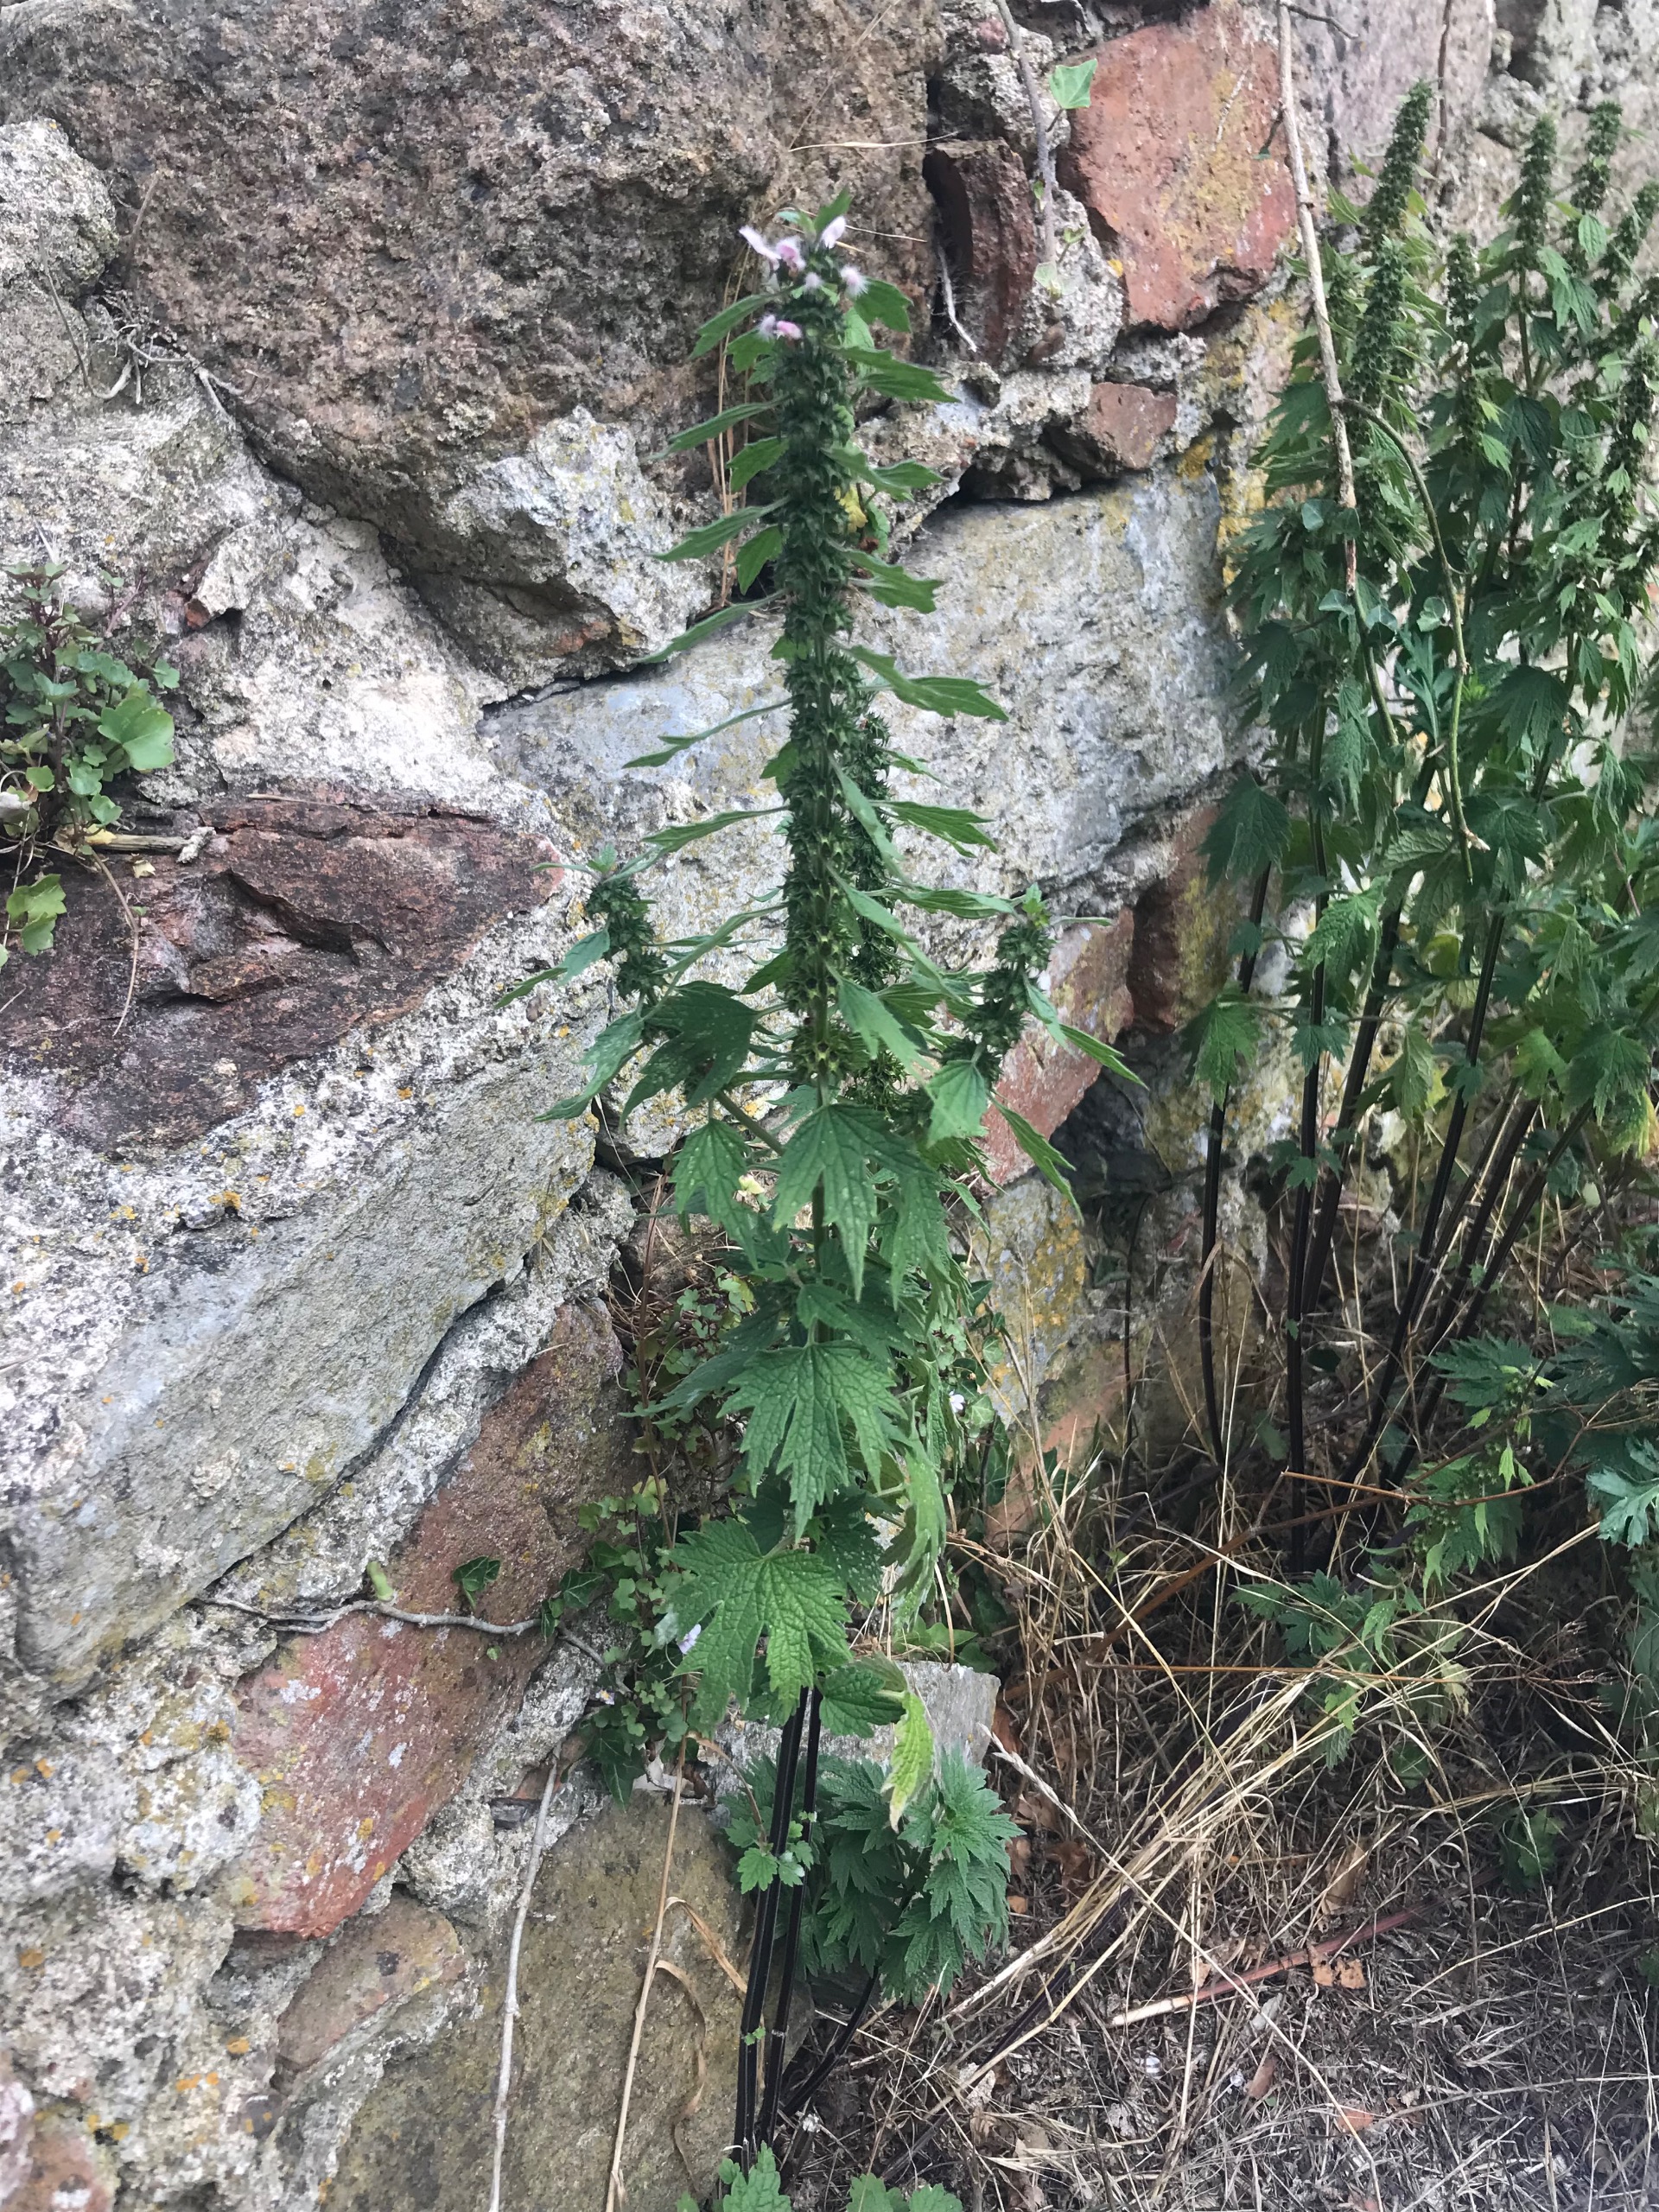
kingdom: Plantae
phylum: Tracheophyta
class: Magnoliopsida
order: Lamiales
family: Lamiaceae
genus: Leonurus
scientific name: Leonurus cardiaca
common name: Hjertespand
